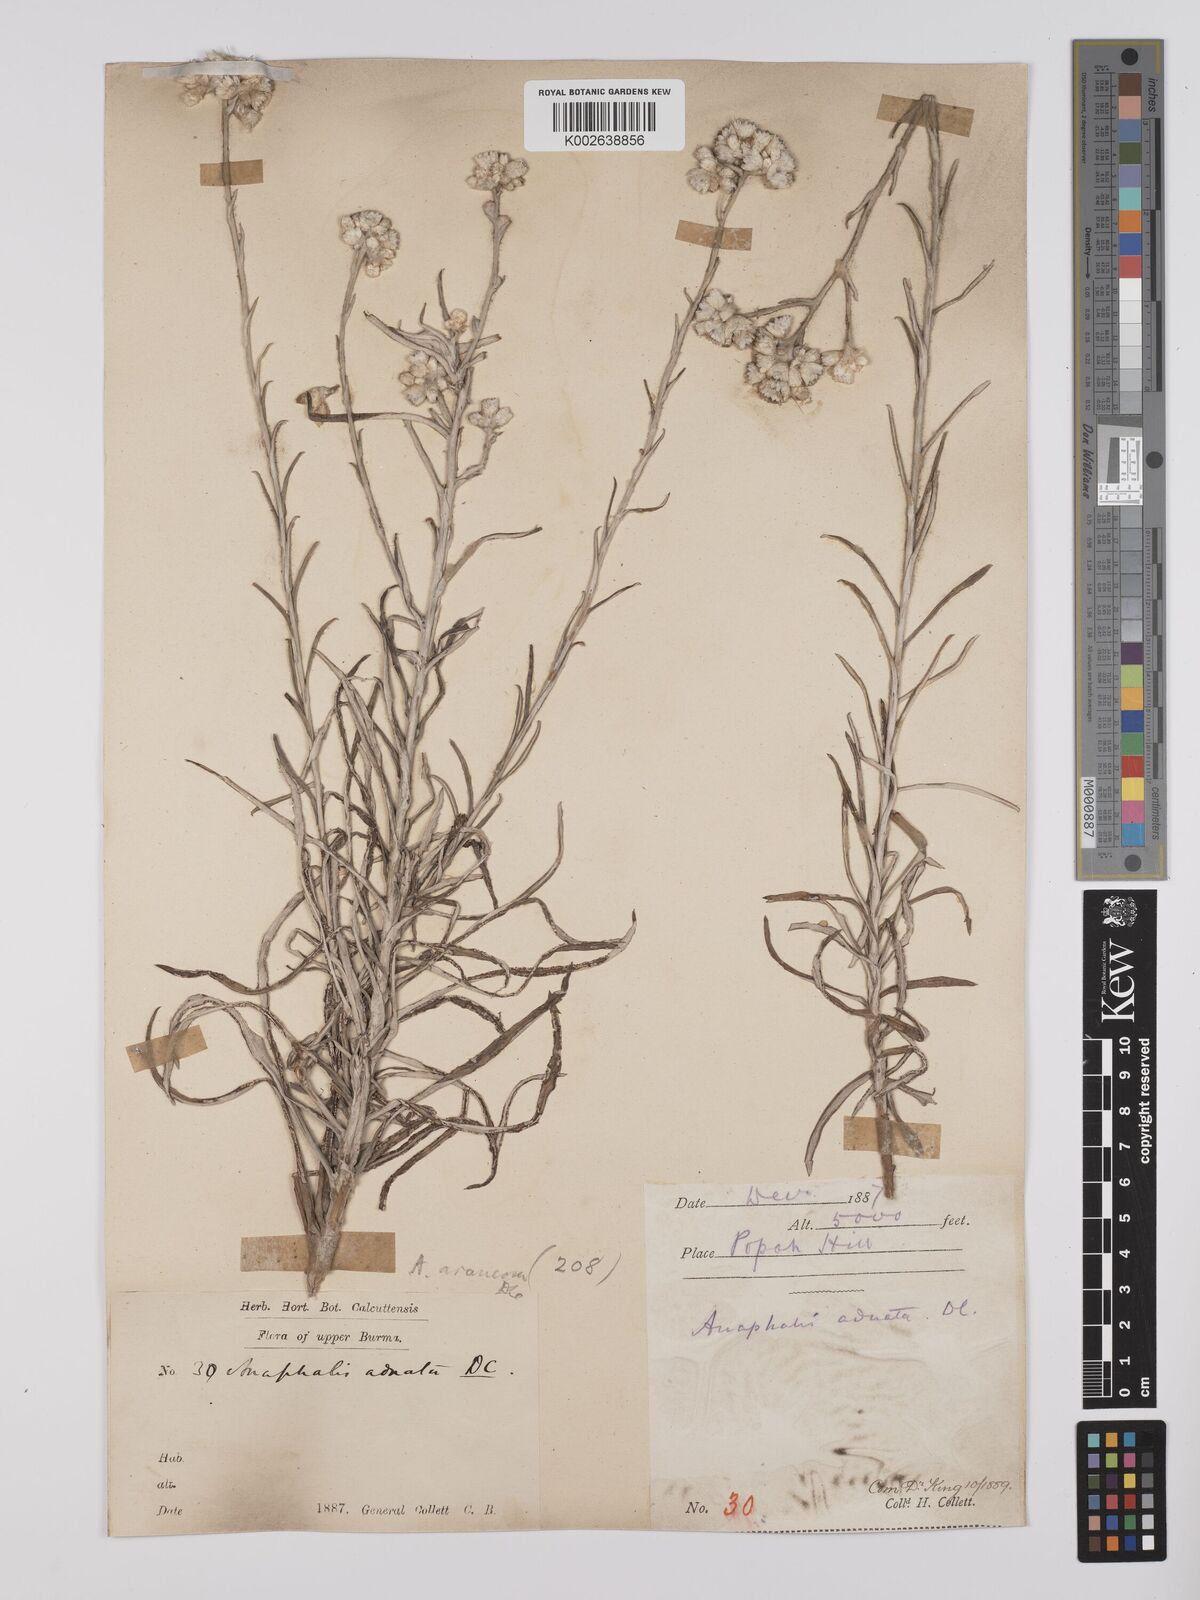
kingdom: Plantae
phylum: Tracheophyta
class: Magnoliopsida
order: Asterales
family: Asteraceae
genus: Anaphalis
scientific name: Anaphalis busua
